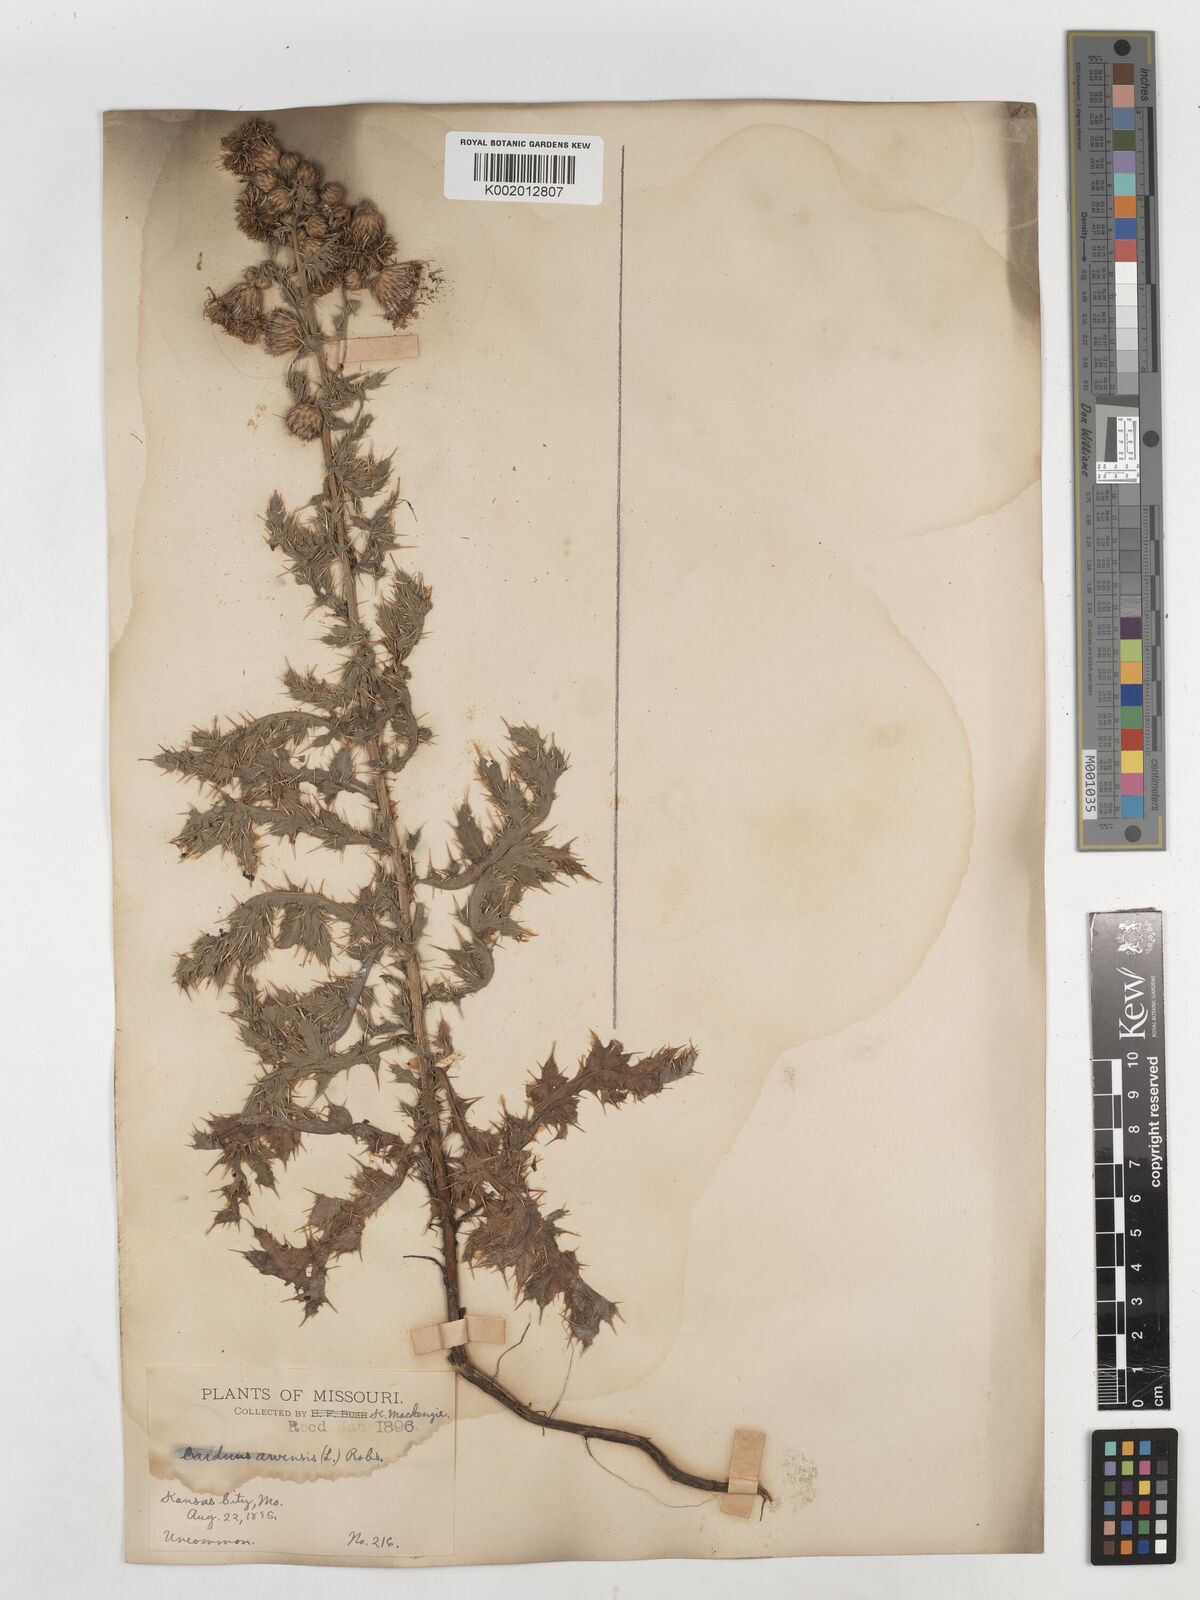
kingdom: Plantae
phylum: Tracheophyta
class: Magnoliopsida
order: Asterales
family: Asteraceae
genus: Cirsium
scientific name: Cirsium
